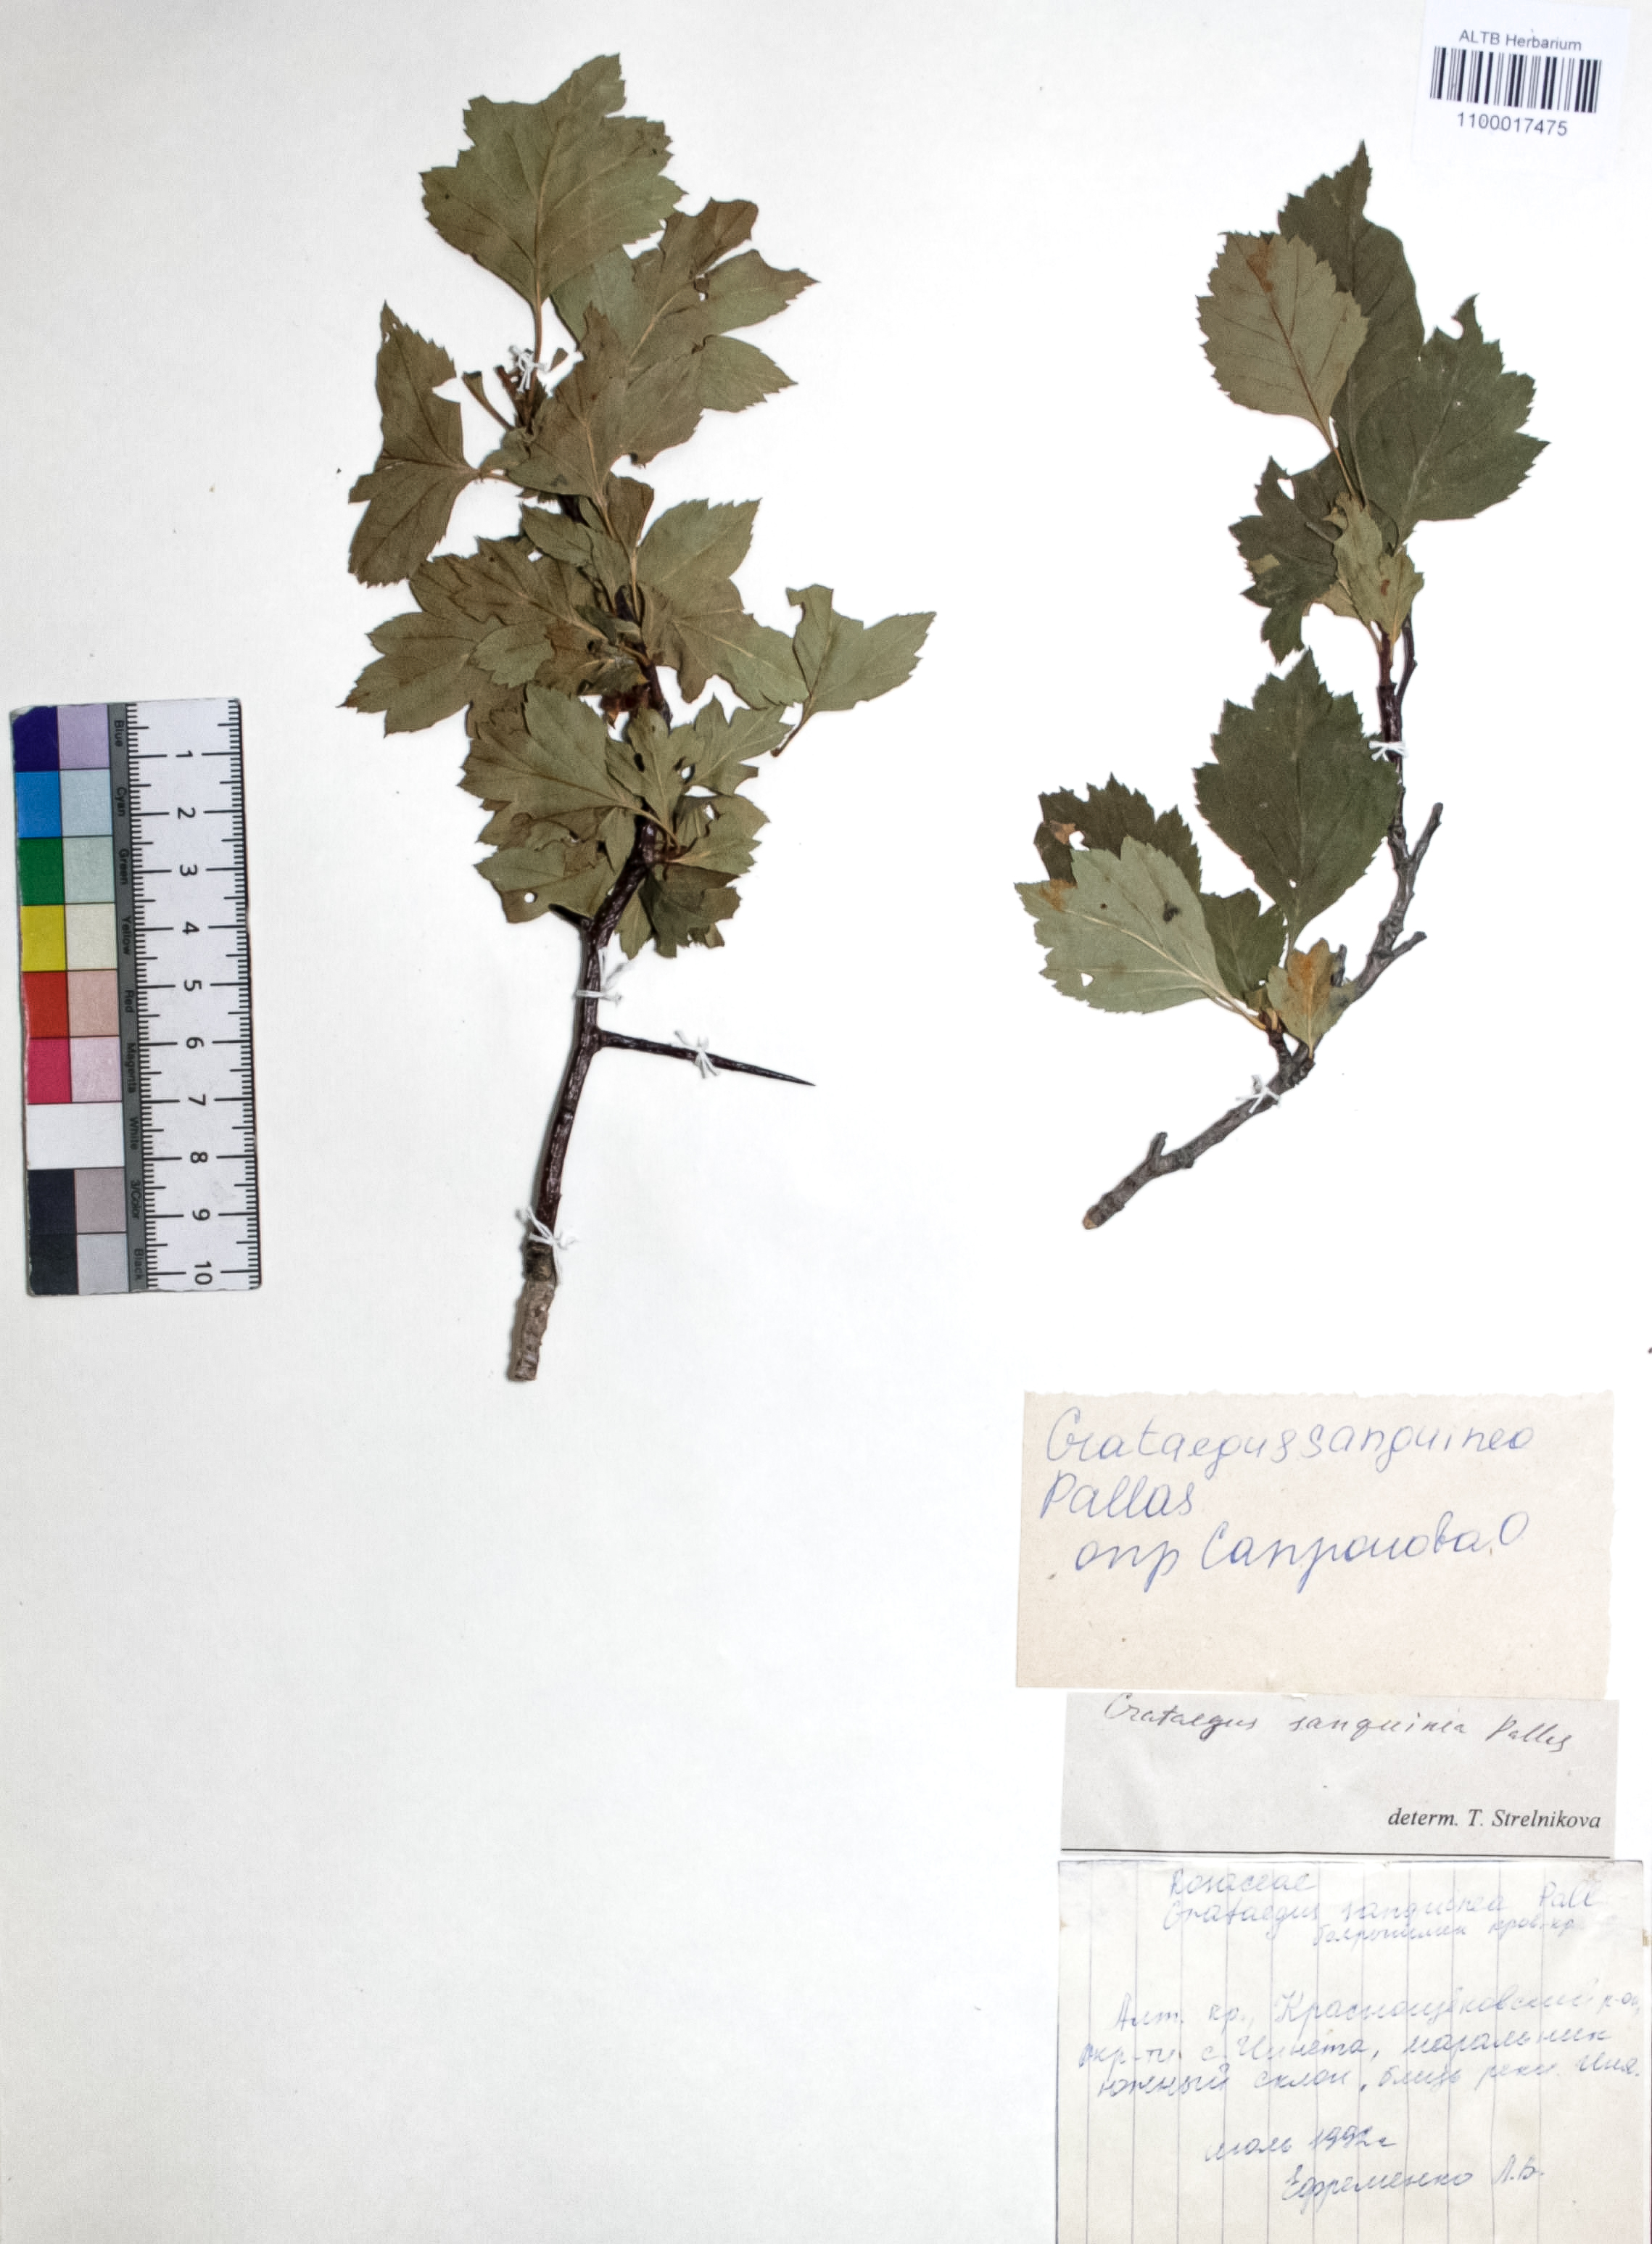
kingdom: Plantae
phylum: Tracheophyta
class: Magnoliopsida
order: Rosales
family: Rosaceae
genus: Crataegus
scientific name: Crataegus sanguinea
